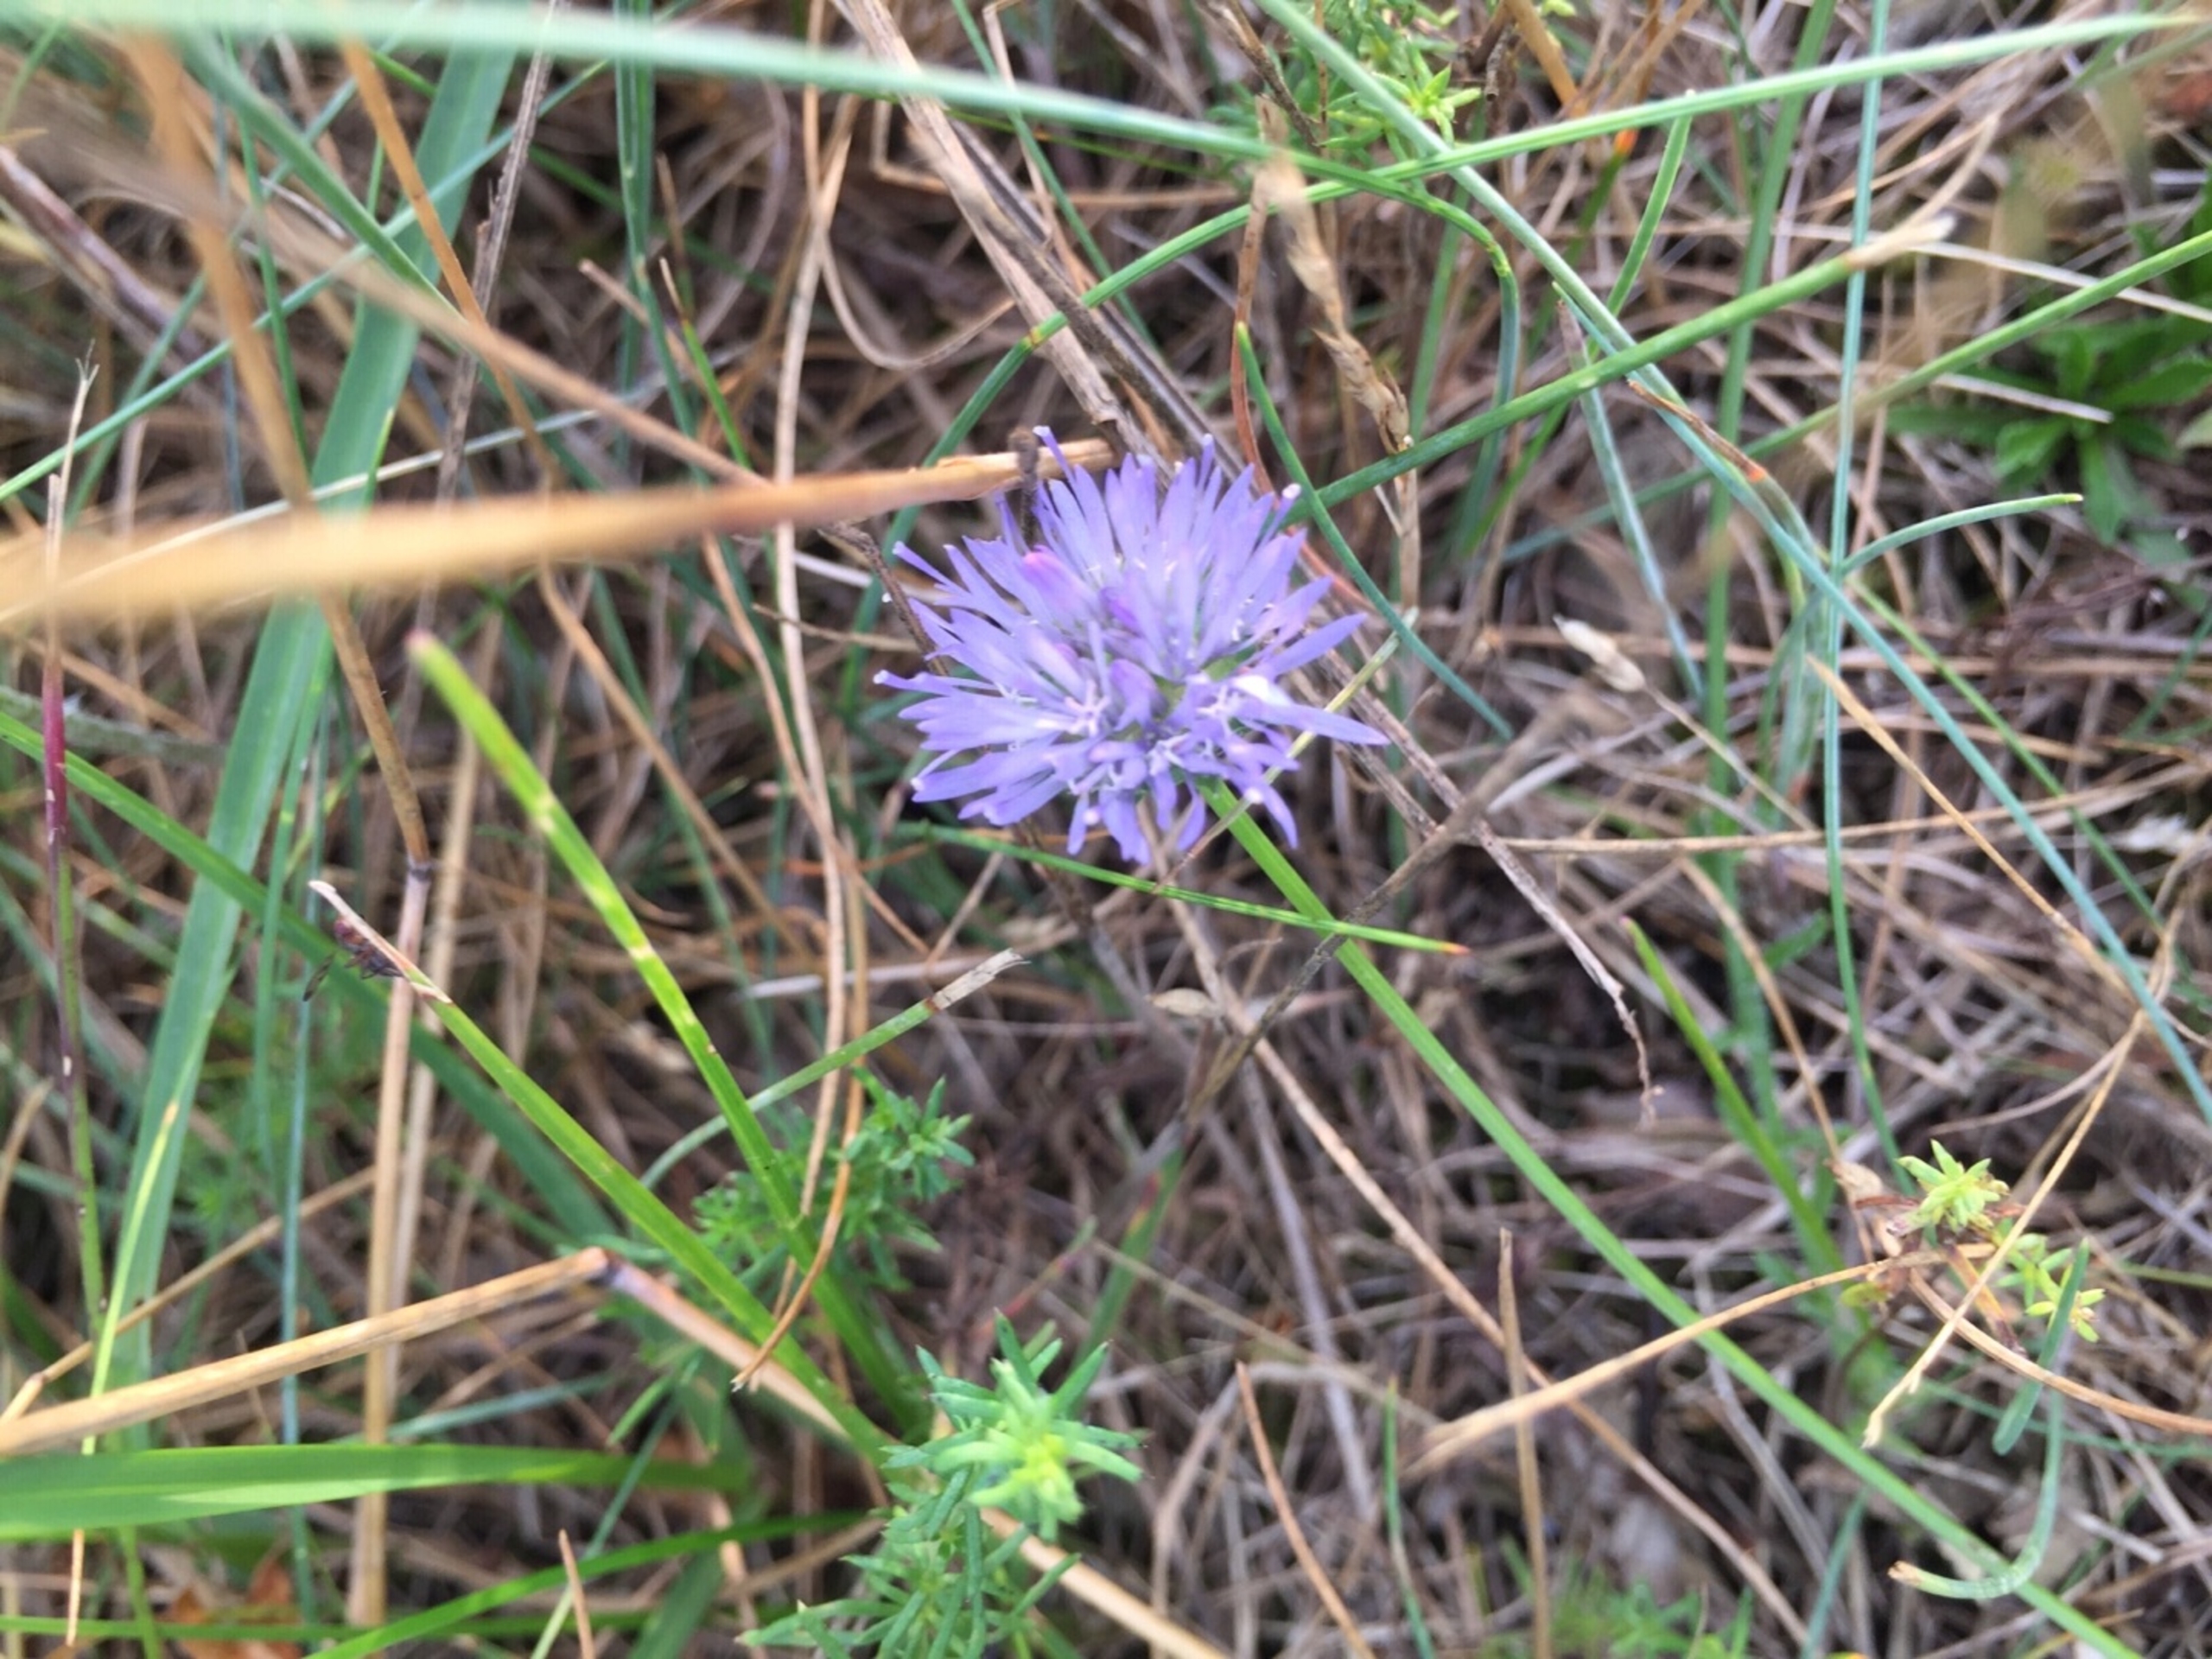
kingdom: Plantae
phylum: Tracheophyta
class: Magnoliopsida
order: Asterales
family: Campanulaceae
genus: Jasione
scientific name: Jasione montana
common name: Blåmunke
